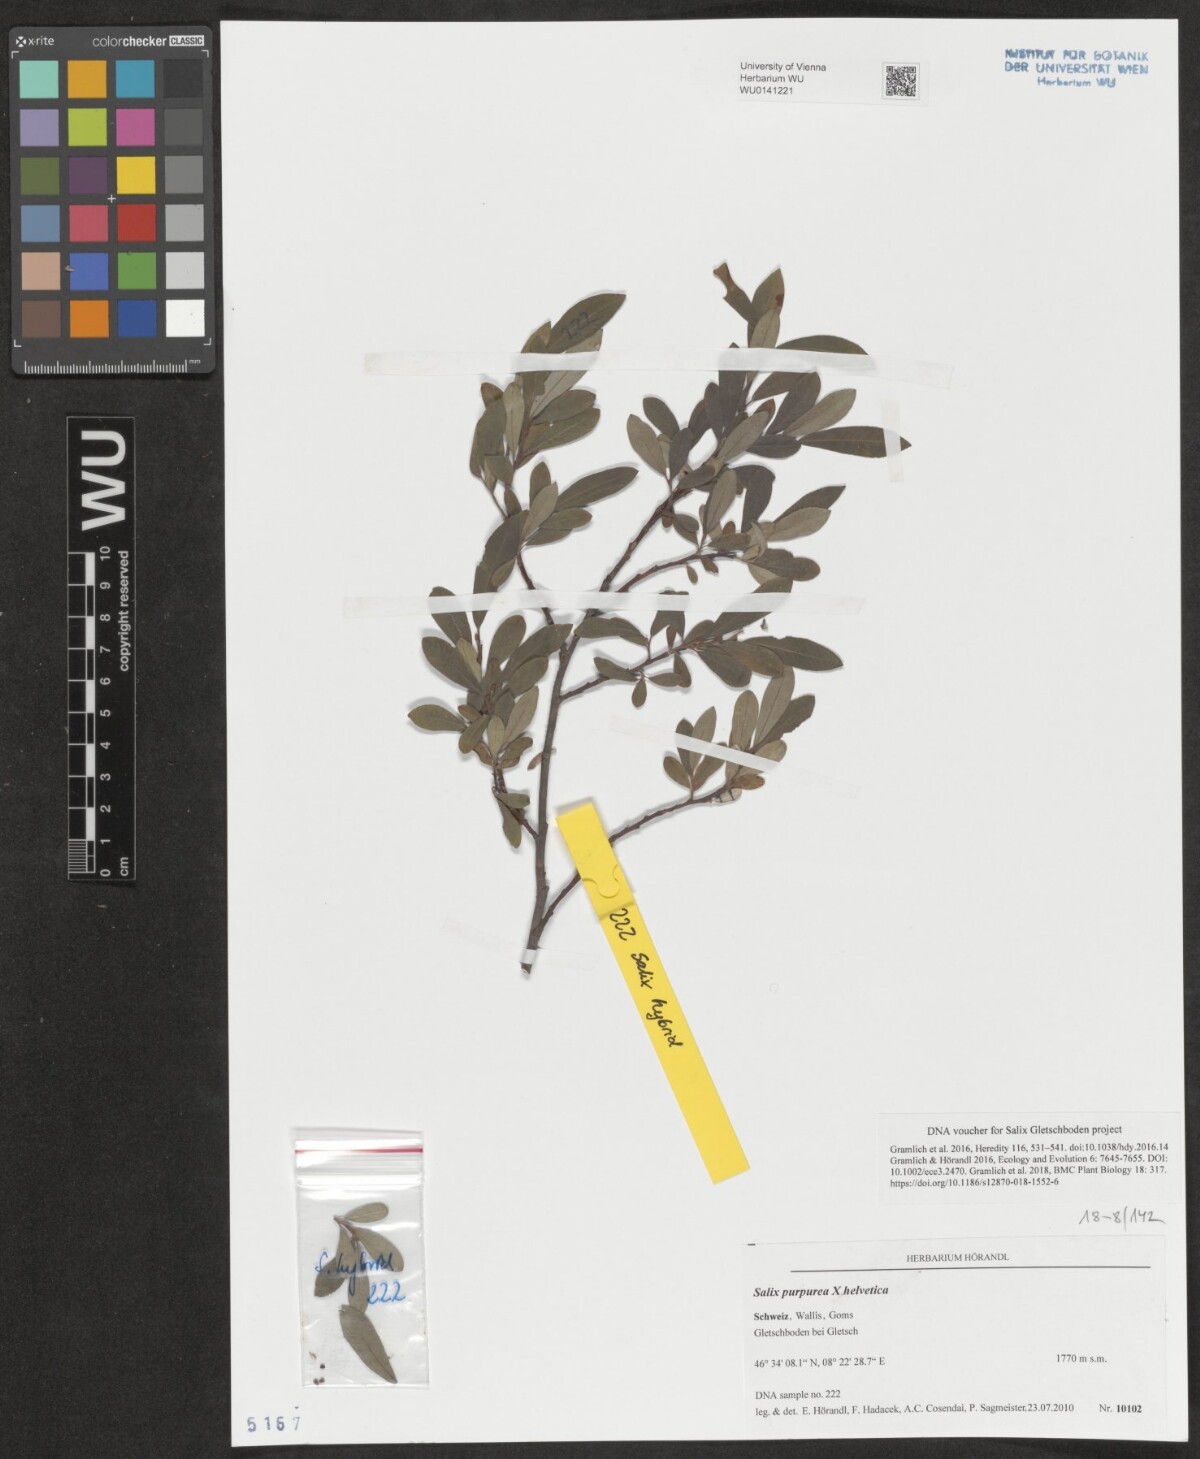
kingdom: Plantae
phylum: Tracheophyta
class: Magnoliopsida
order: Malpighiales
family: Salicaceae
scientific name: Salicaceae
